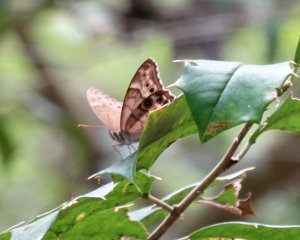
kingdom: Animalia
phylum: Arthropoda
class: Insecta
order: Lepidoptera
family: Nymphalidae
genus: Enodia
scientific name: Enodia portlandia
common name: Southern Pearly Eye
